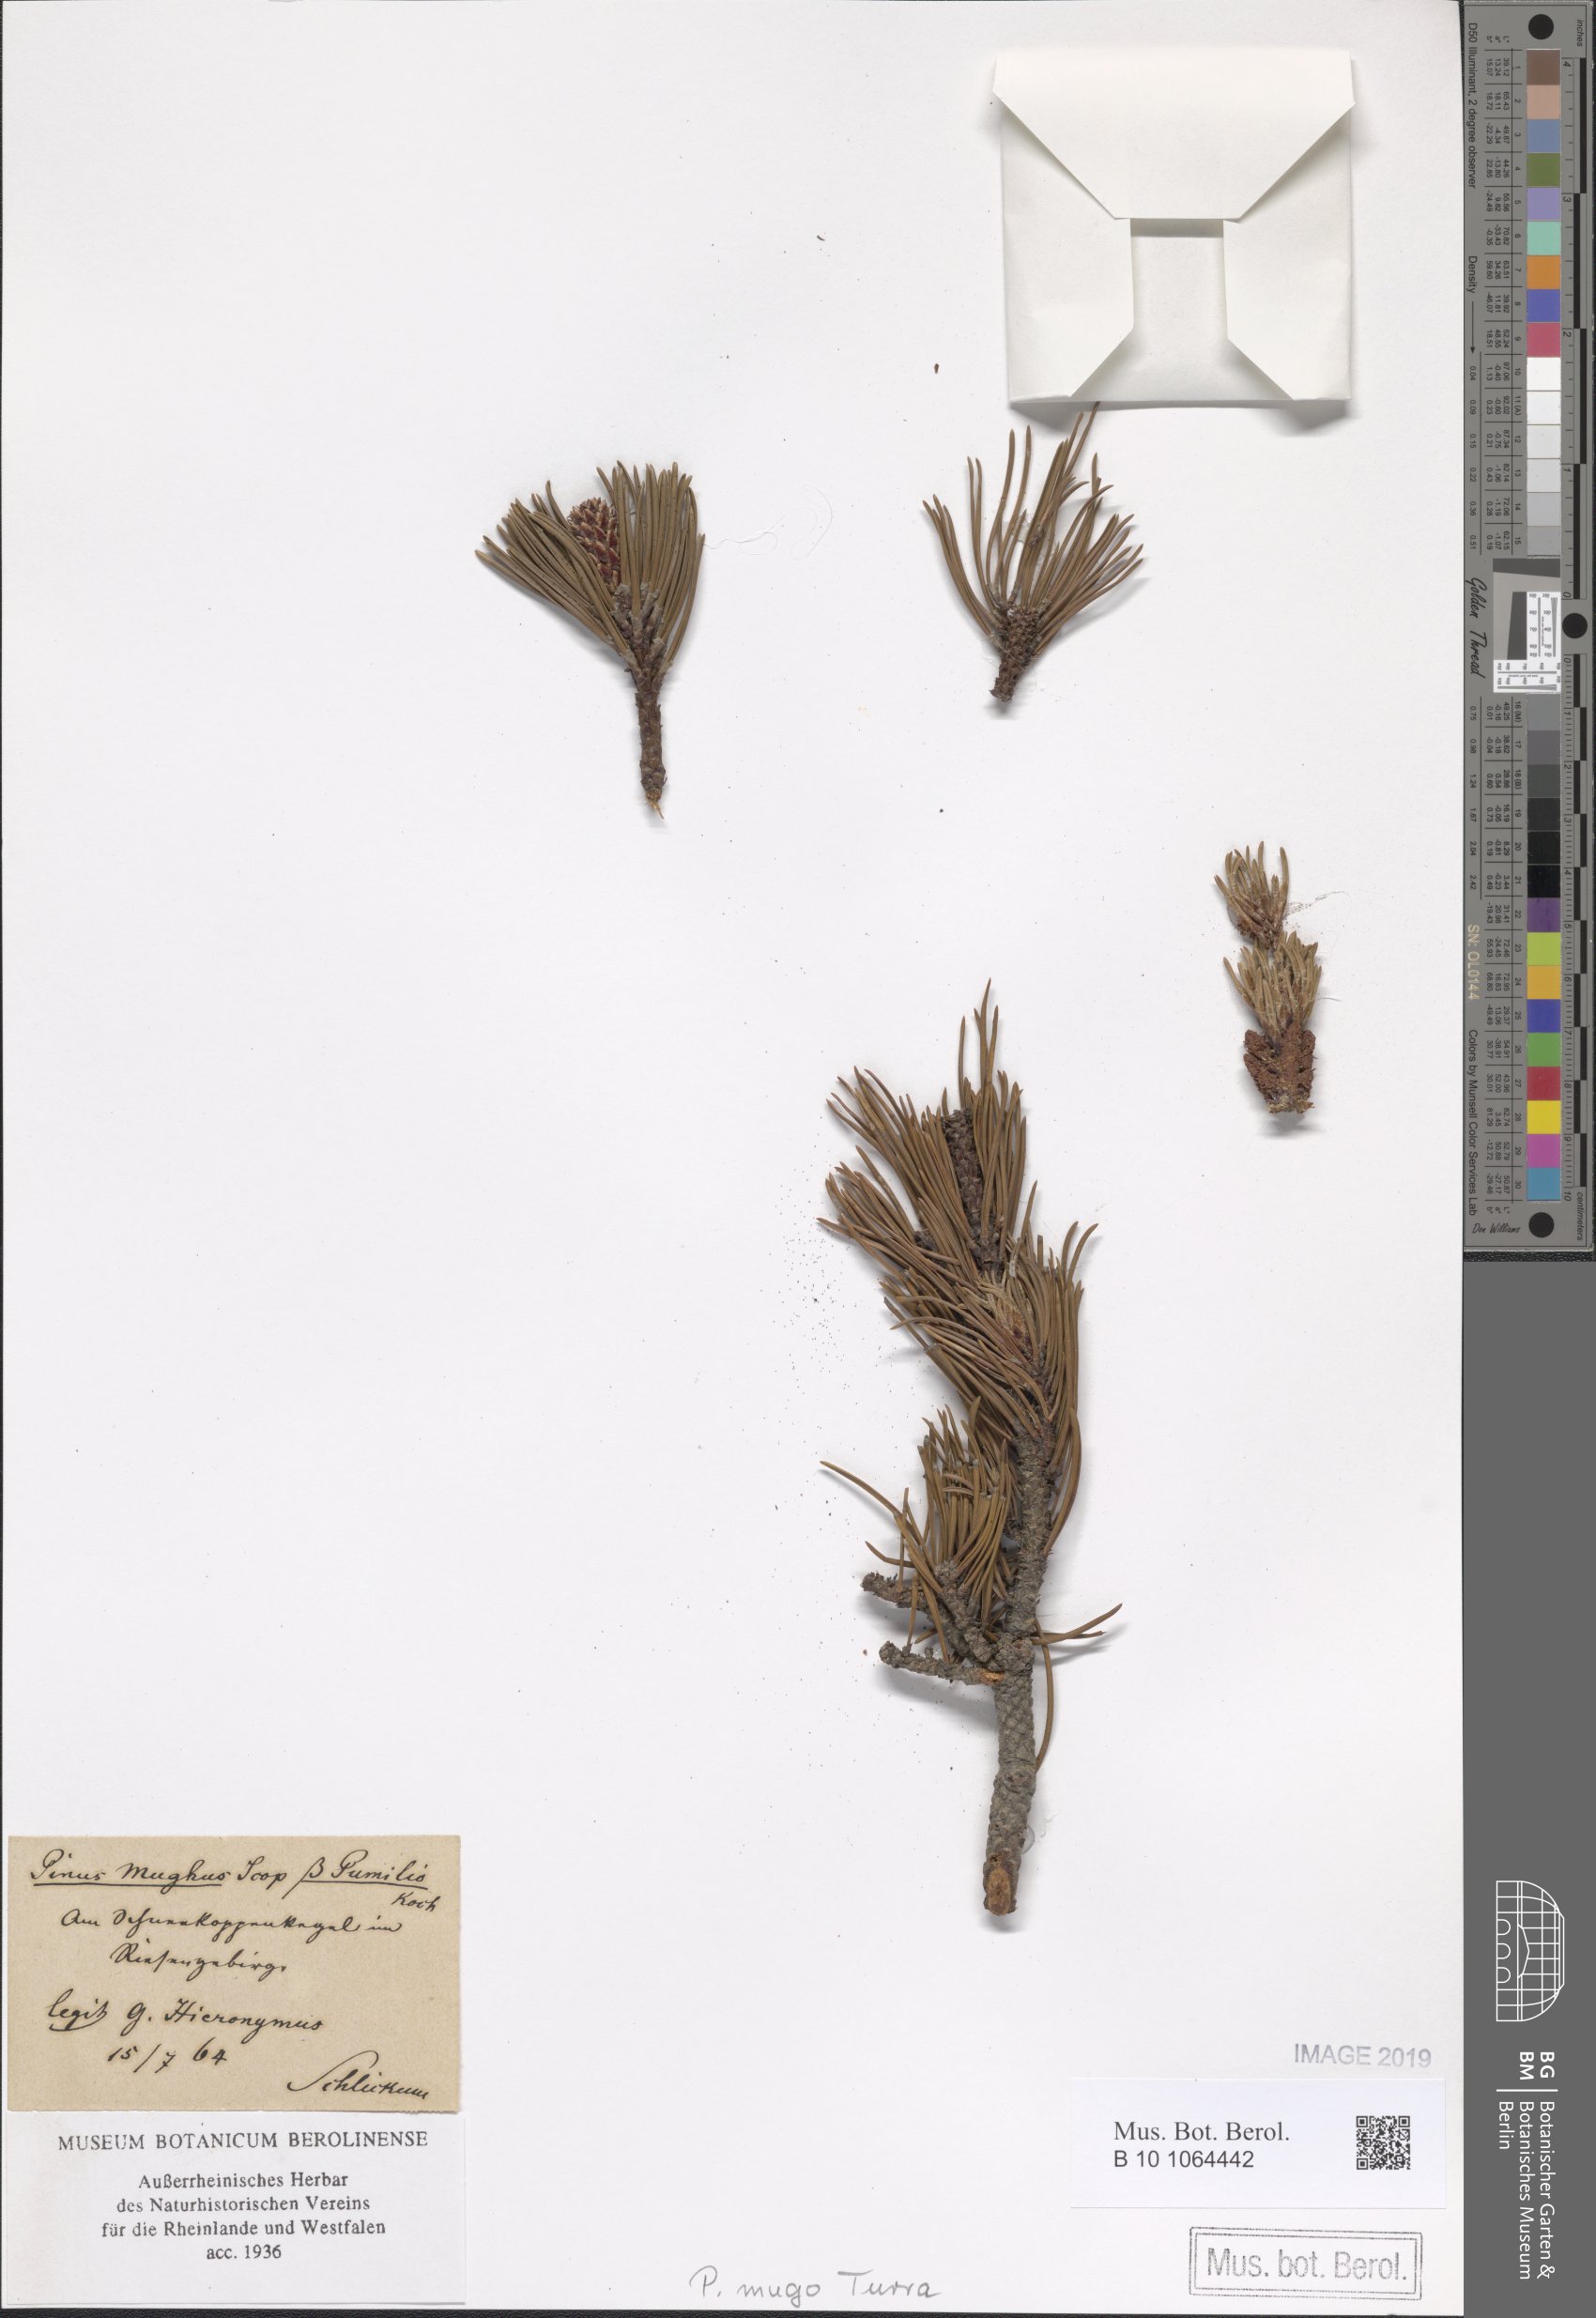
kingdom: Plantae
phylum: Tracheophyta
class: Pinopsida
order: Pinales
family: Pinaceae
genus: Pinus
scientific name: Pinus mugo
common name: Mugo pine
